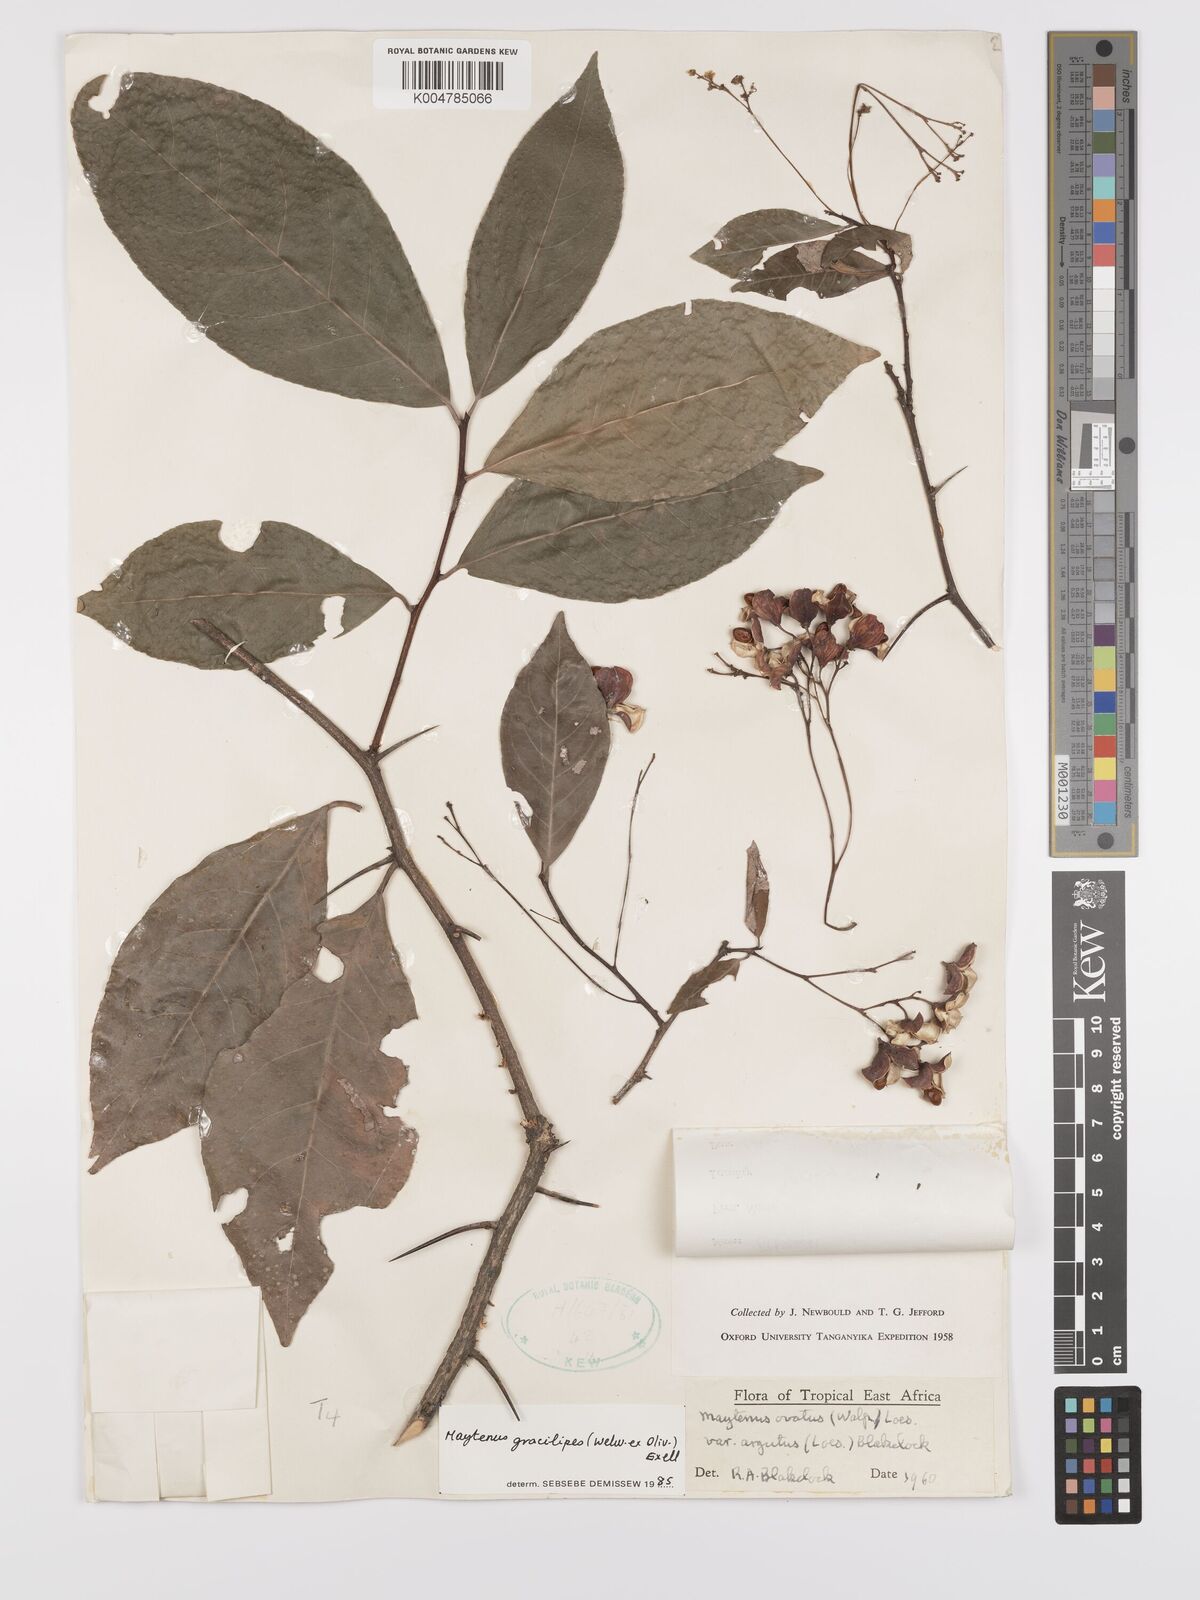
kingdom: Plantae
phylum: Tracheophyta
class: Magnoliopsida
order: Celastrales
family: Celastraceae
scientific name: Celastraceae
